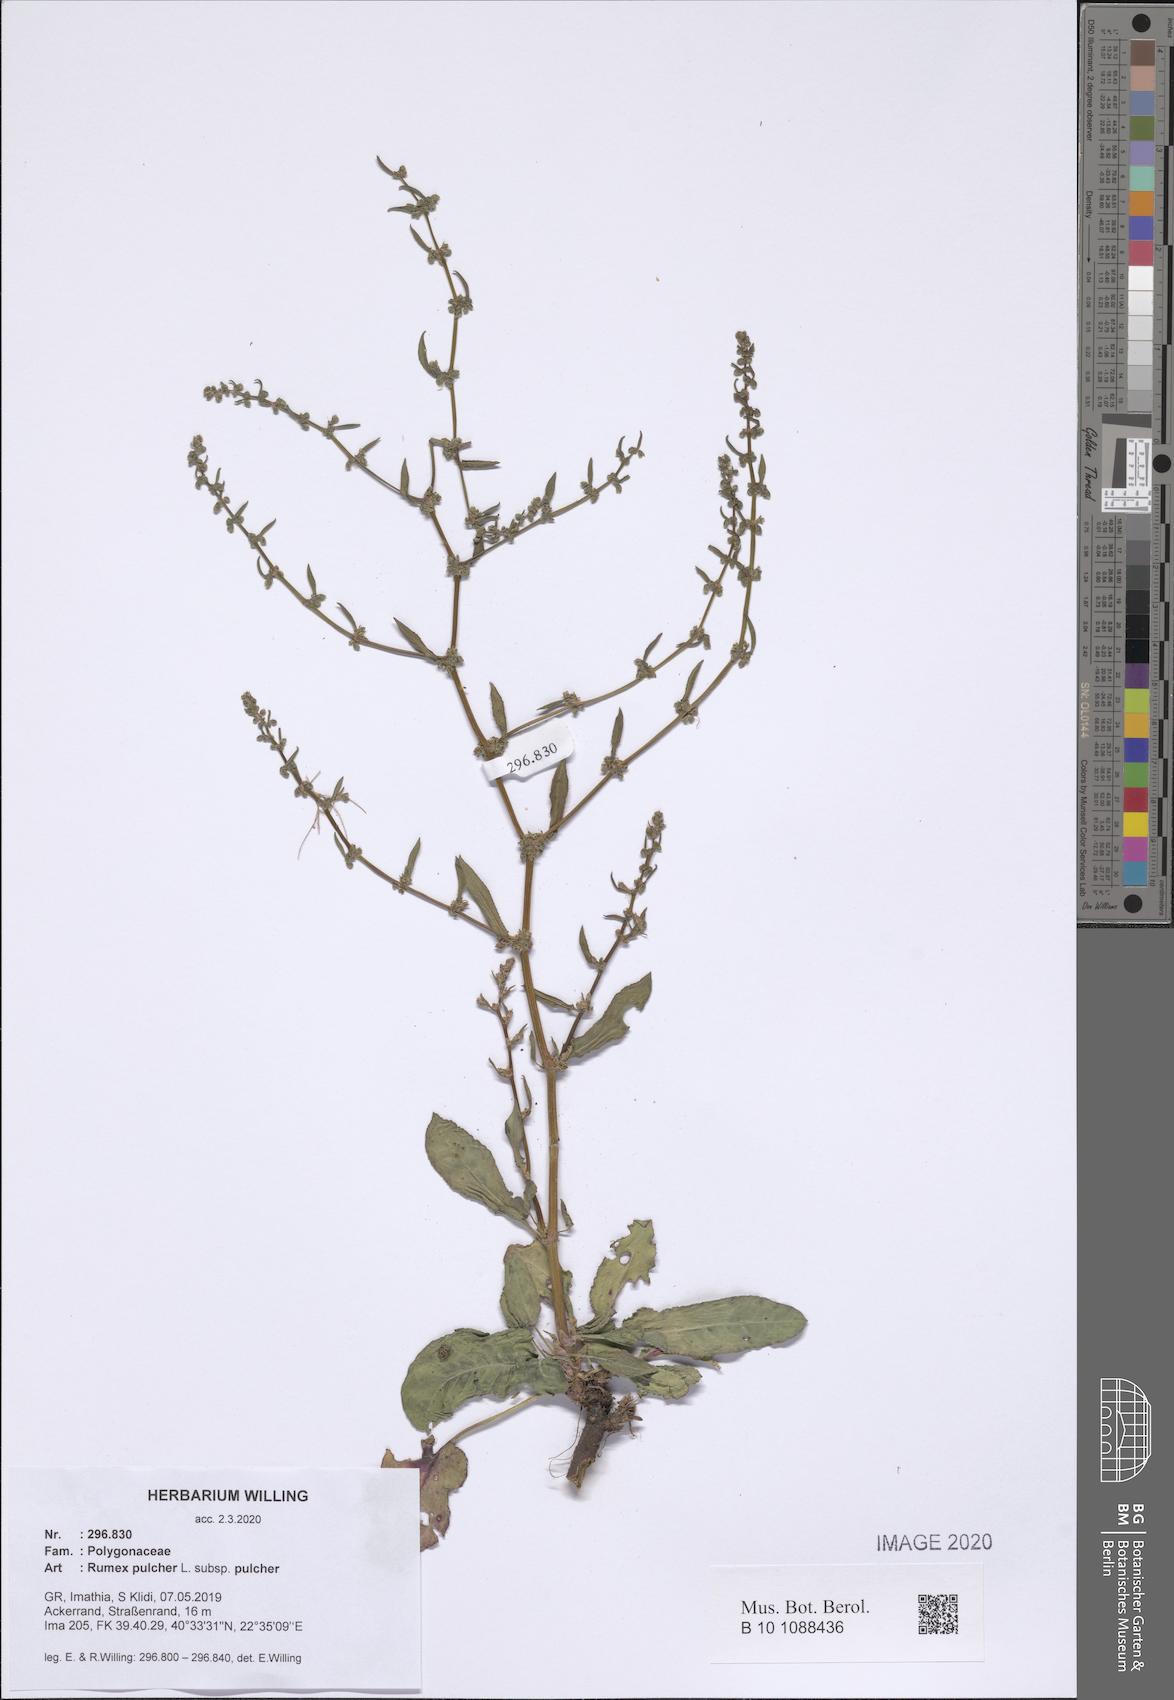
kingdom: Plantae
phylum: Tracheophyta
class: Magnoliopsida
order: Caryophyllales
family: Polygonaceae
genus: Rumex
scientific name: Rumex pulcher
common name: Fiddle dock
